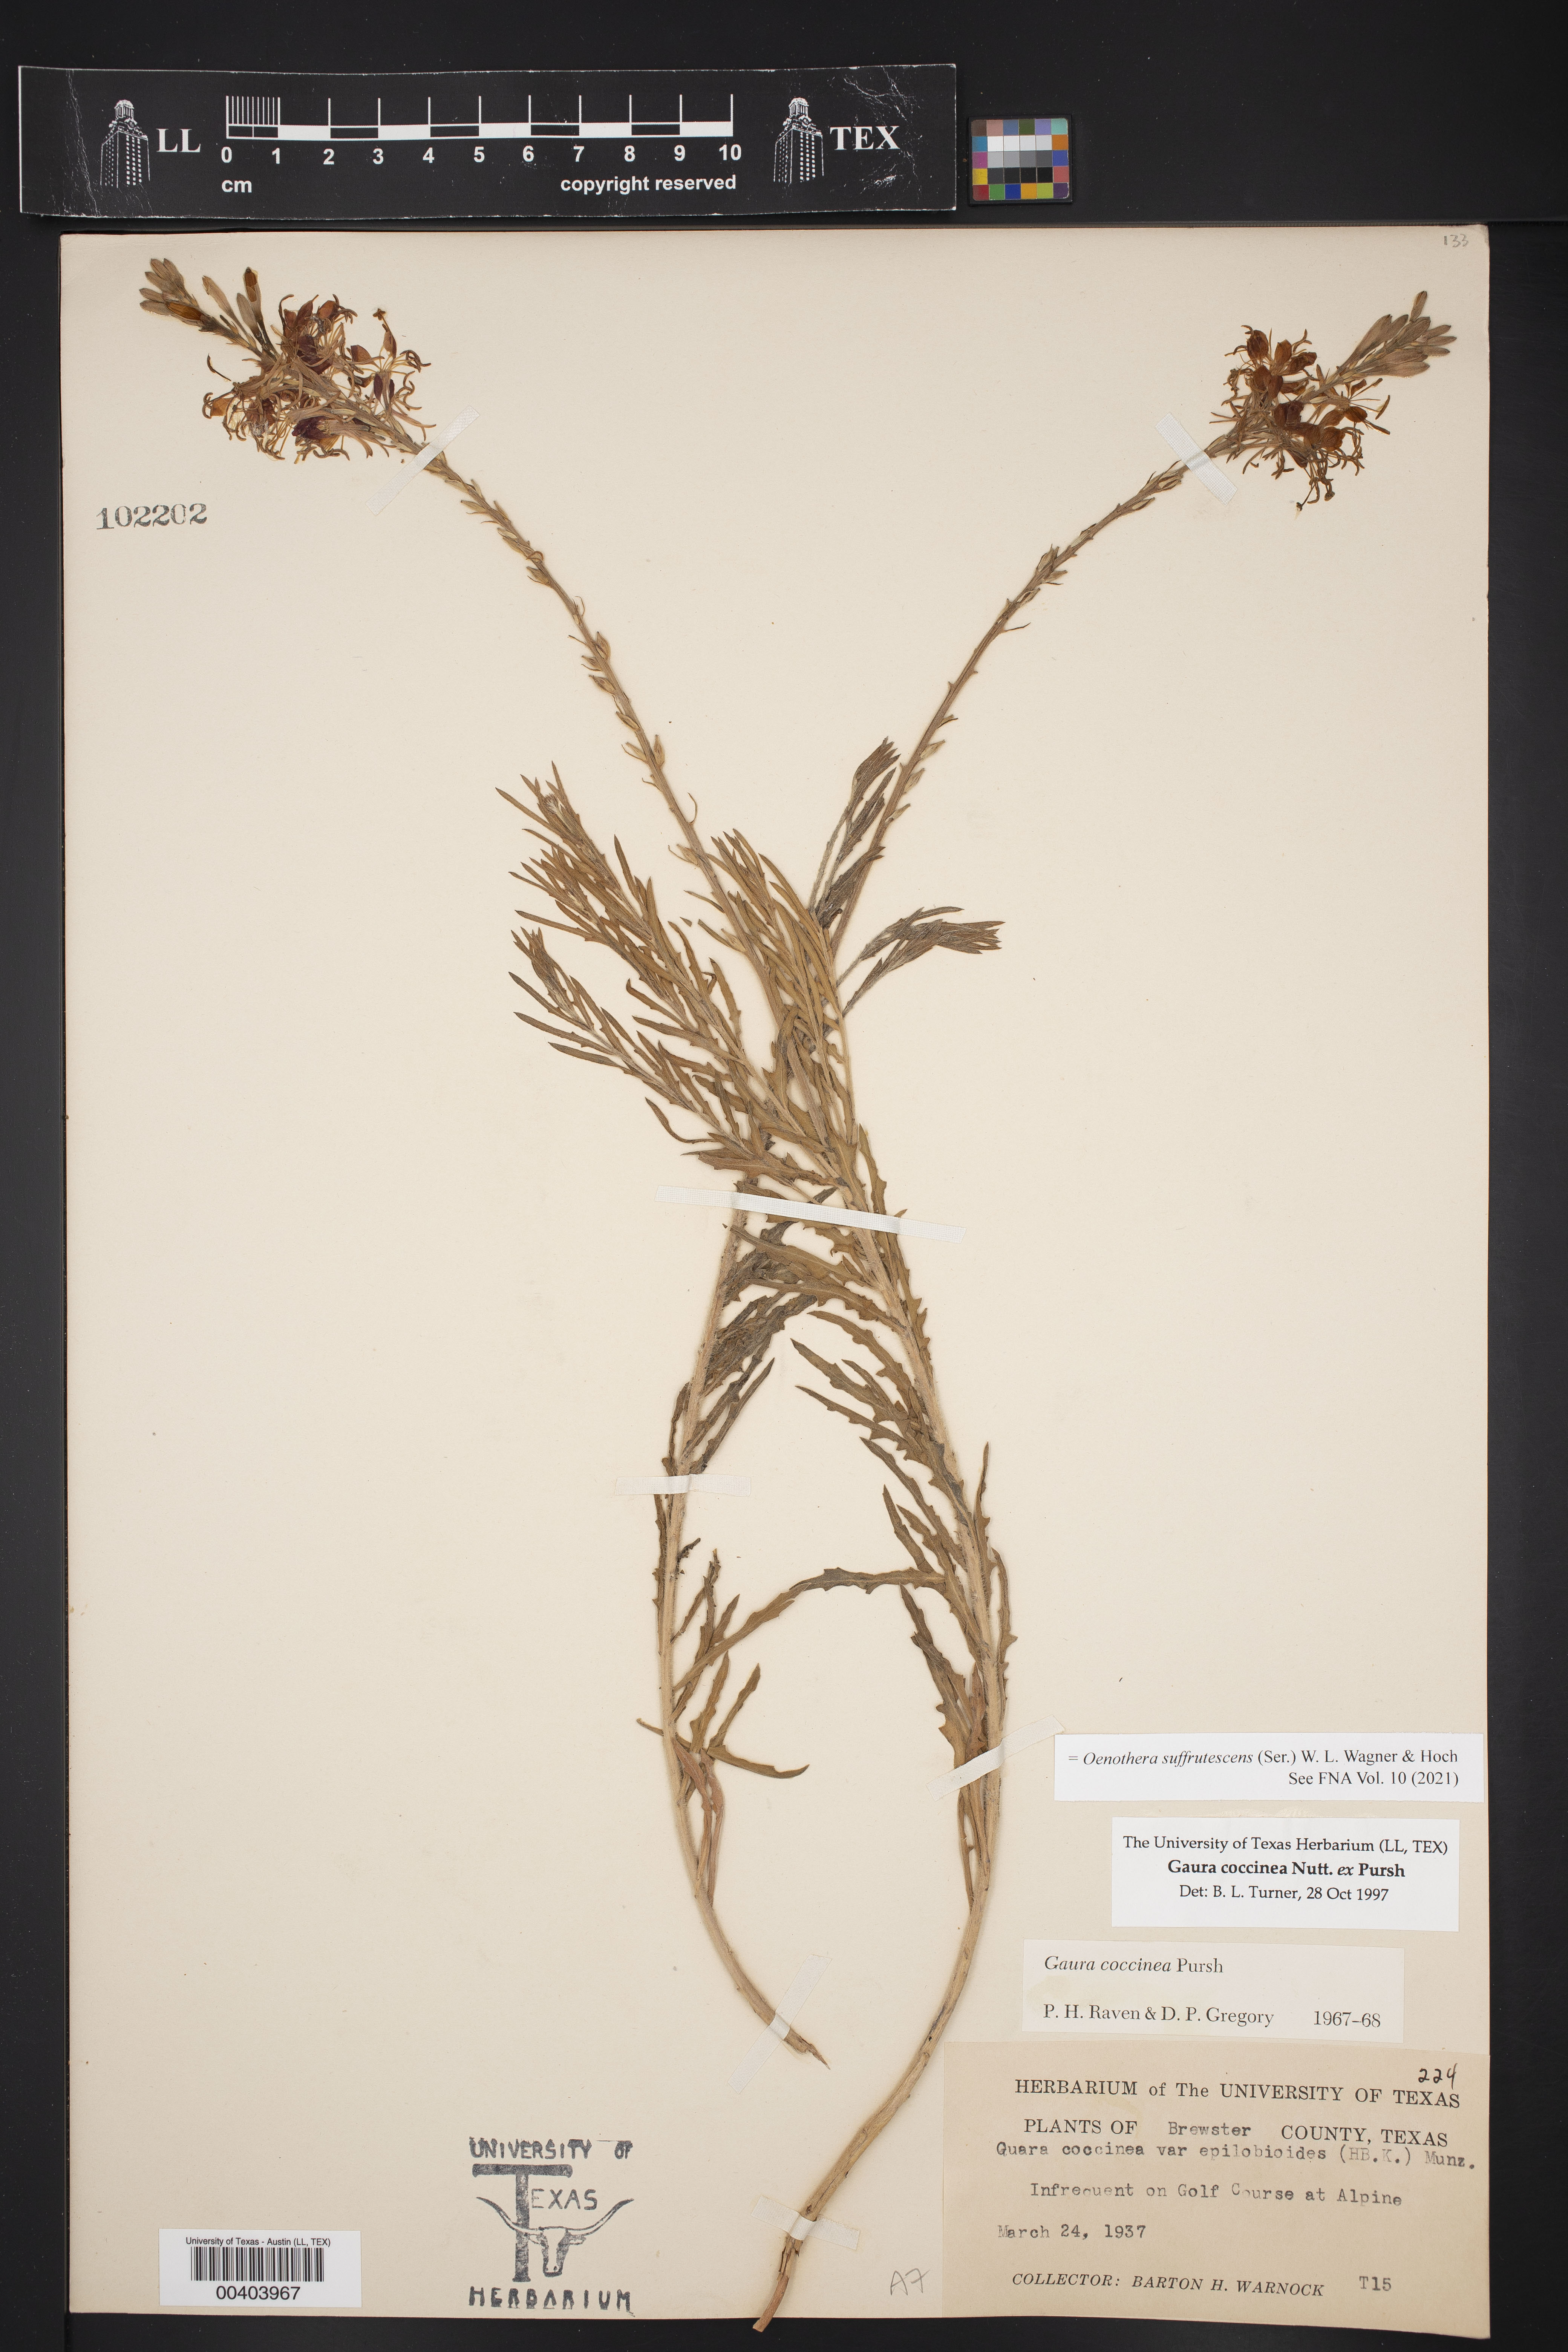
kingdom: Plantae
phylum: Tracheophyta
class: Magnoliopsida
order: Myrtales
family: Onagraceae
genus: Oenothera
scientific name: Oenothera suffrutescens
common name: Scarlet beeblossom
